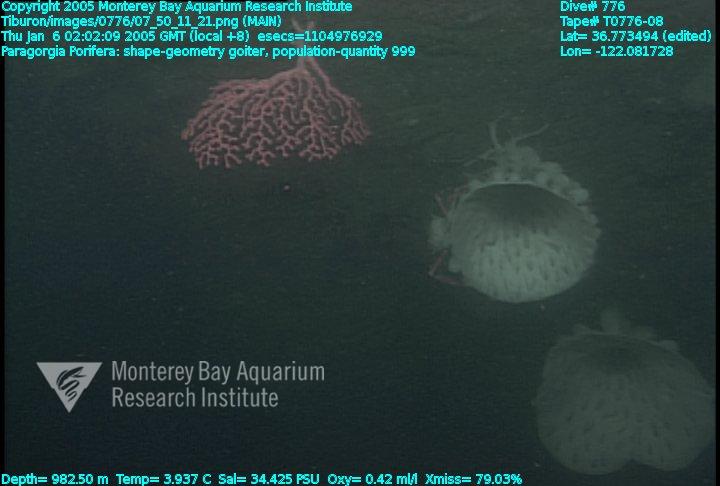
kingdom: Animalia
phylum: Porifera
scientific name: Porifera
